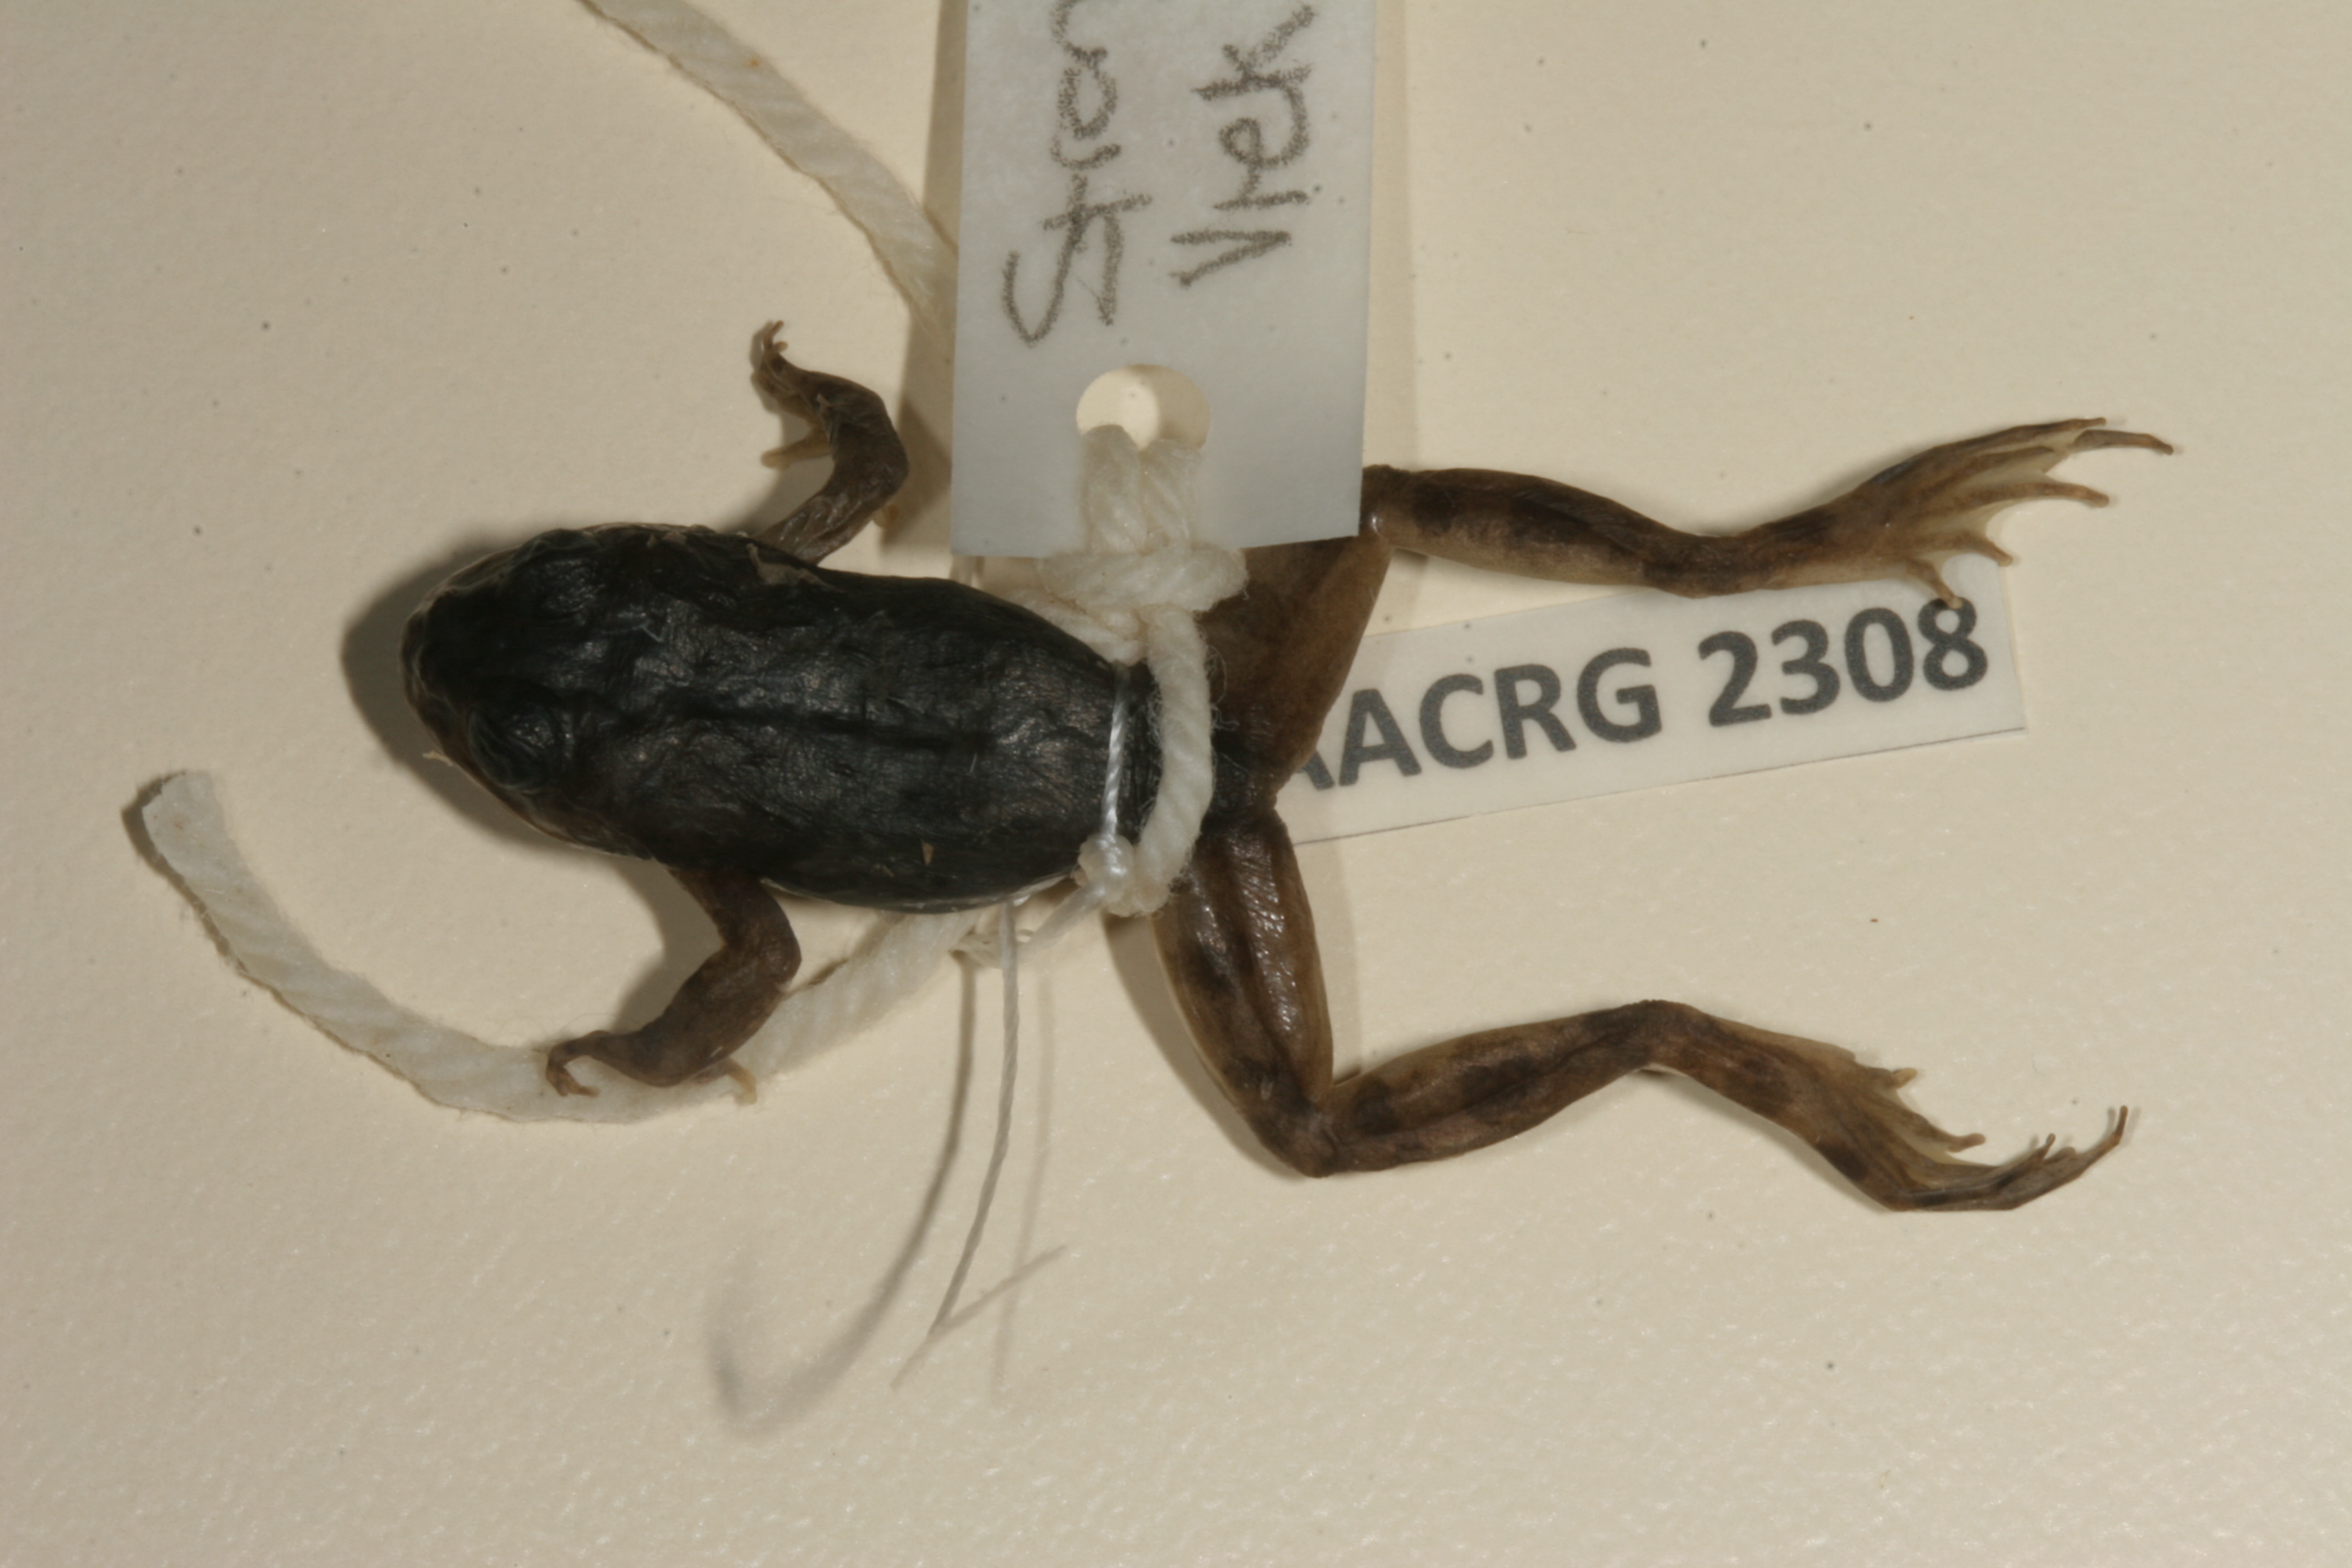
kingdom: Animalia
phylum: Chordata
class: Amphibia
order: Anura
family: Pyxicephalidae
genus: Amietia
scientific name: Amietia vertebralis
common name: Drakensberg stream frog
